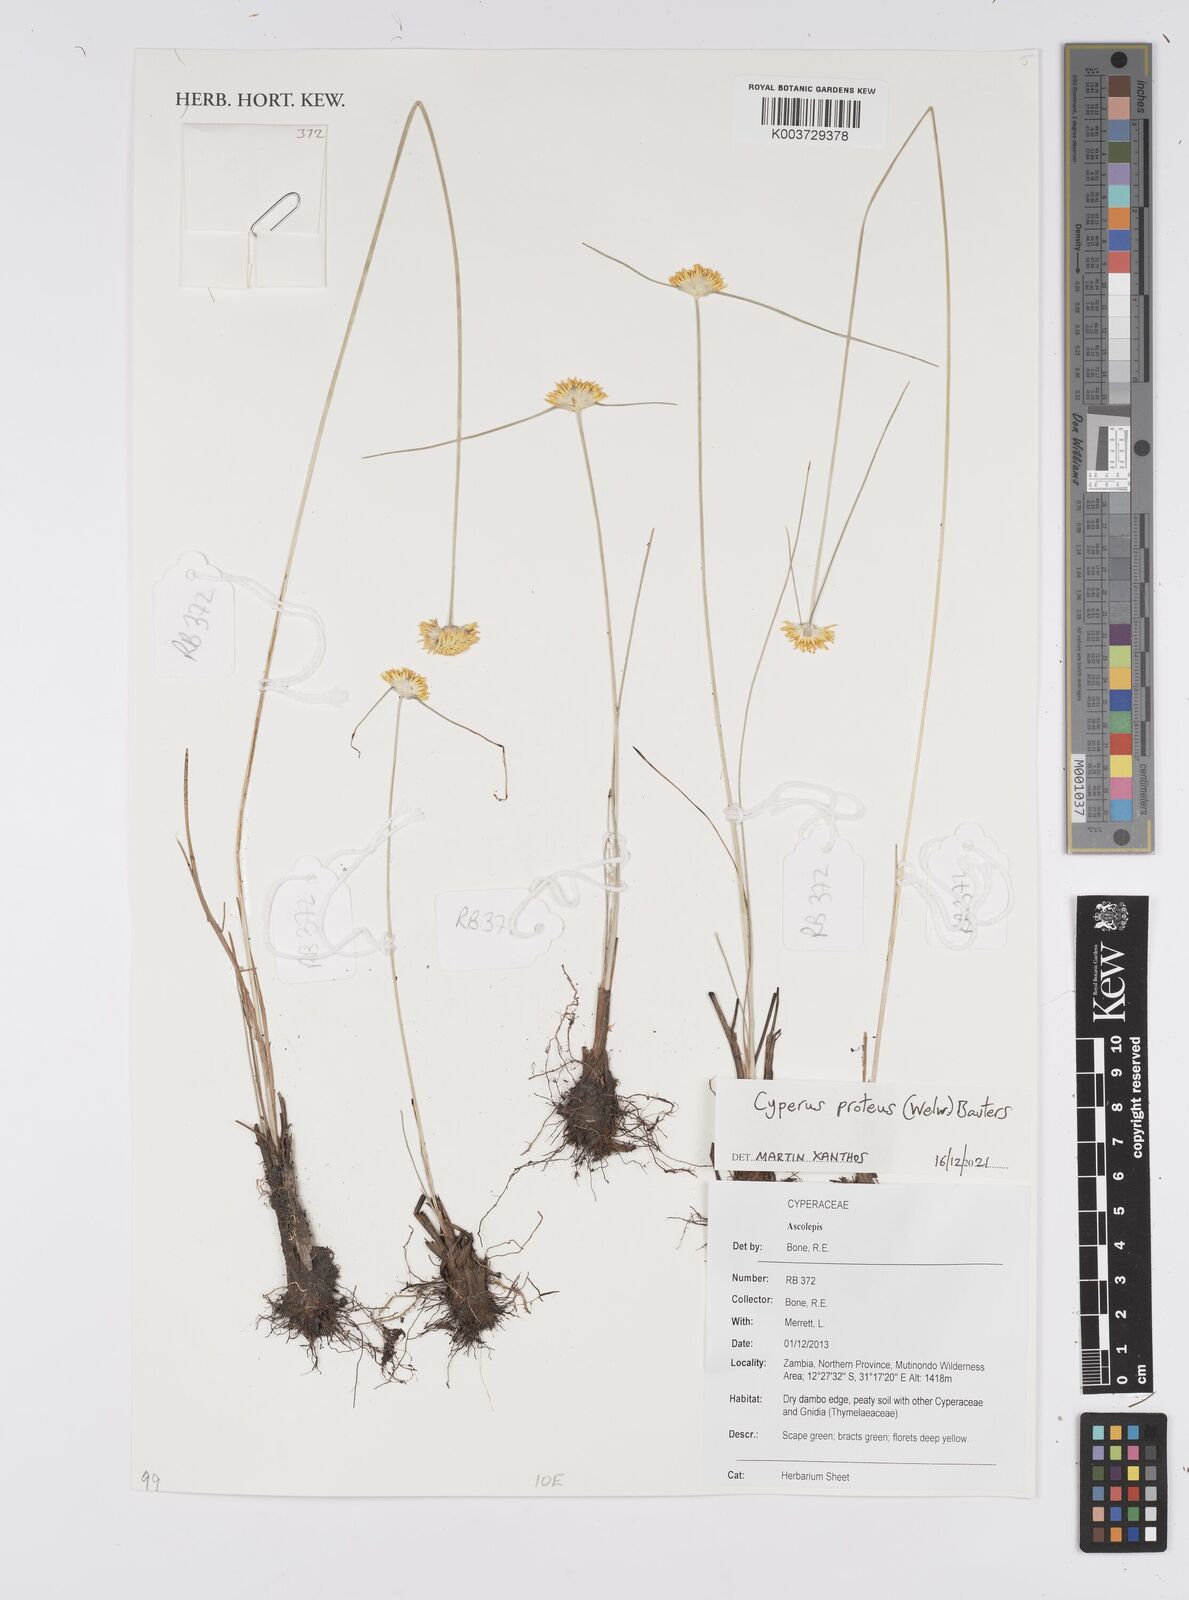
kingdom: Plantae
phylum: Tracheophyta
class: Liliopsida
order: Poales
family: Cyperaceae
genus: Cyperus
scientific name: Cyperus proteus
